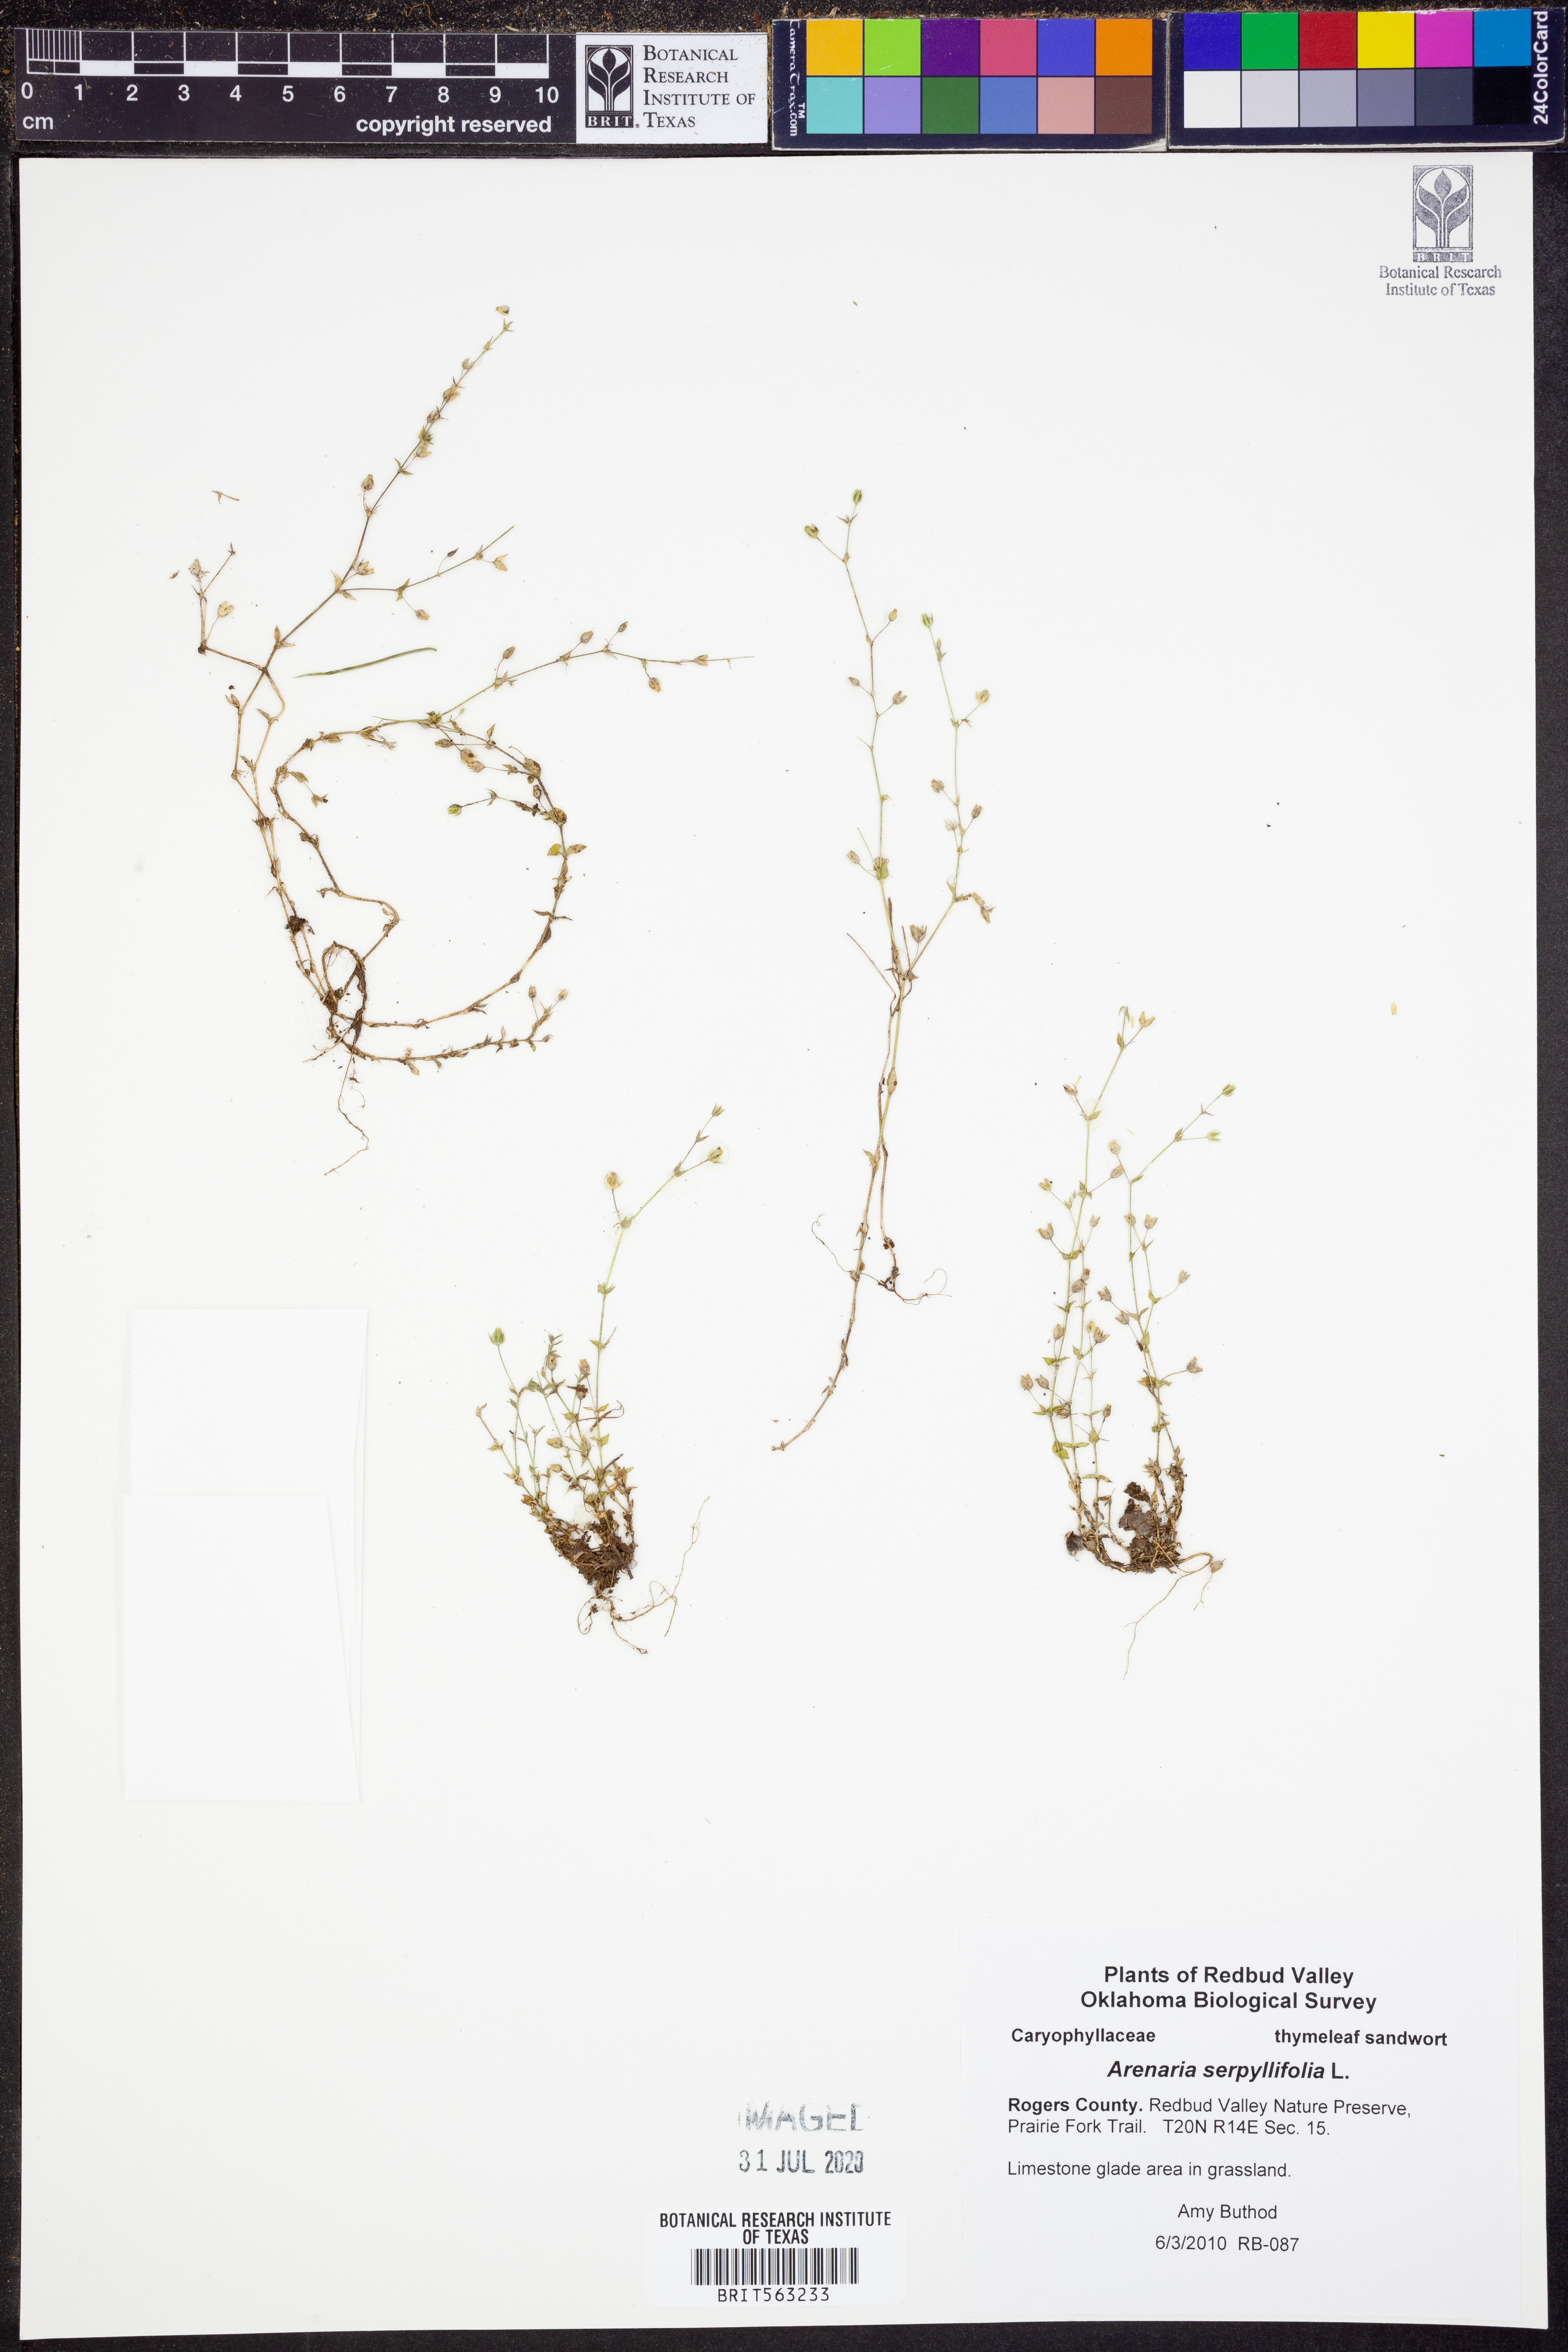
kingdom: Plantae
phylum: Tracheophyta
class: Magnoliopsida
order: Caryophyllales
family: Caryophyllaceae
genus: Arenaria
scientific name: Arenaria serpyllifolia
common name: Thyme-leaved sandwort
